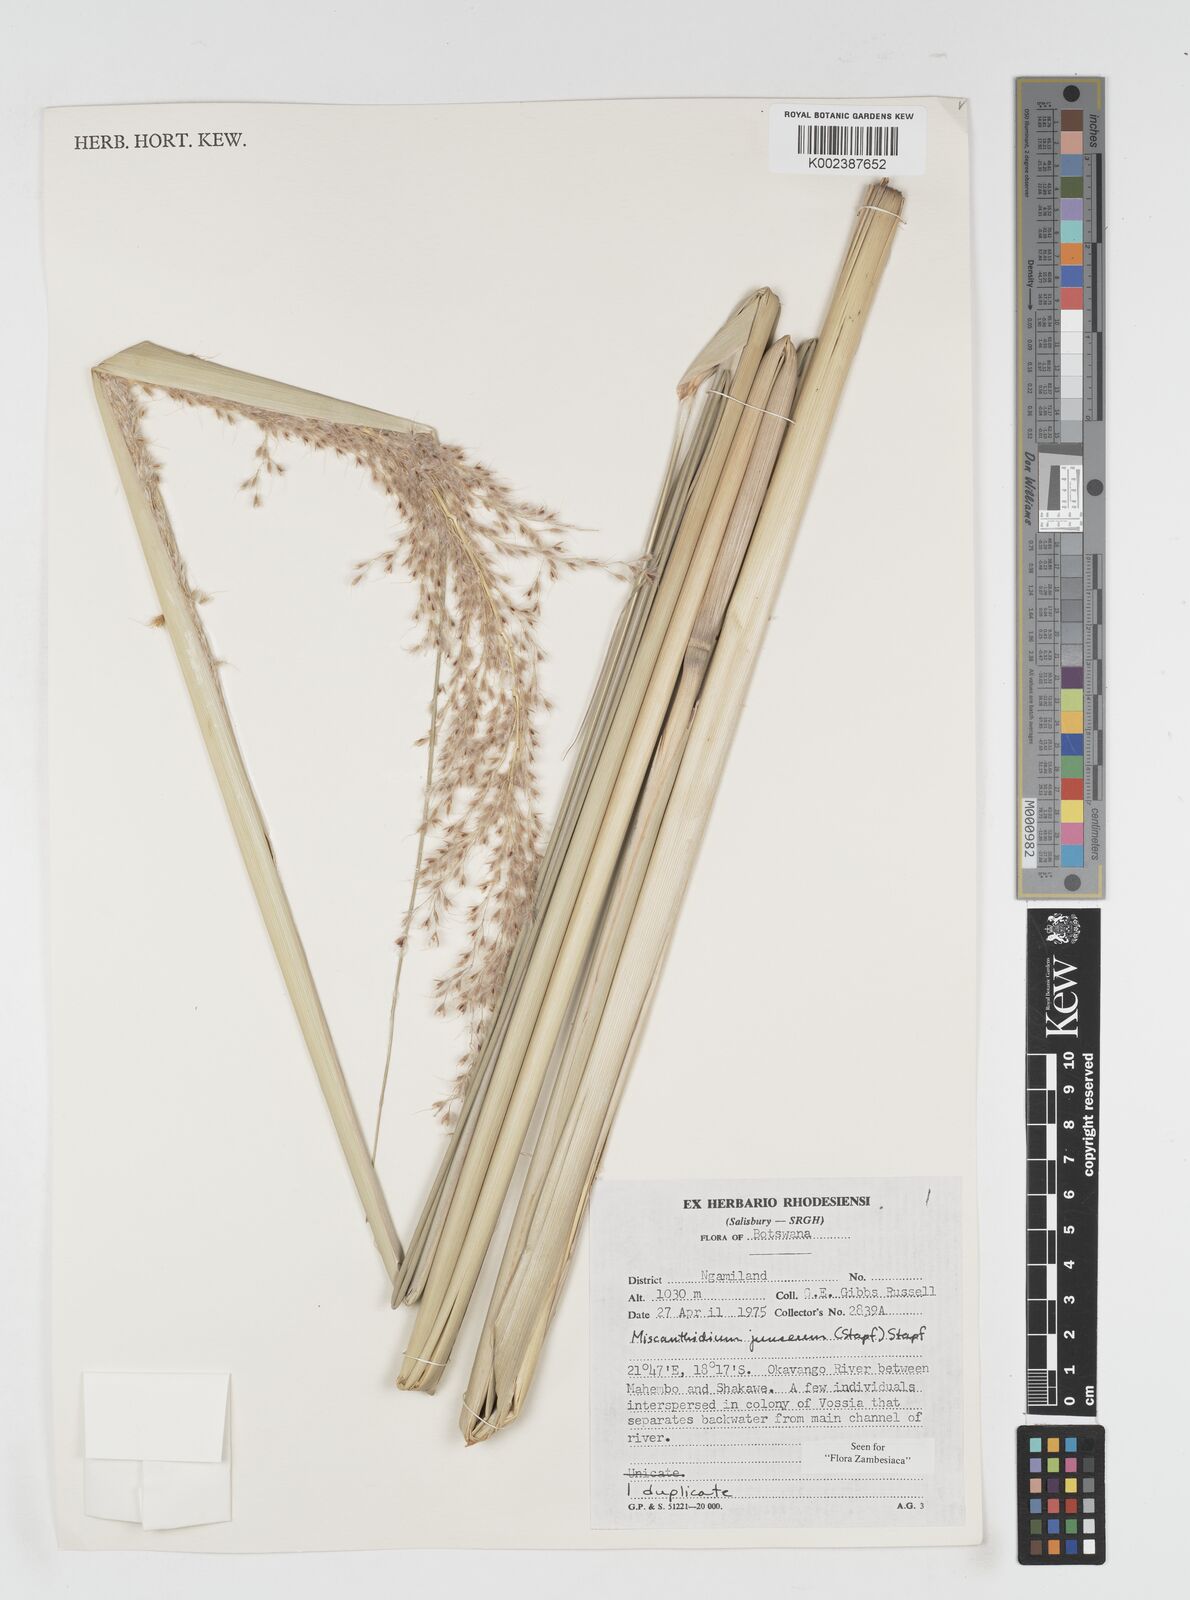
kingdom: Plantae
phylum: Tracheophyta
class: Liliopsida
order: Poales
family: Poaceae
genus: Miscanthidium
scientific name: Miscanthidium junceum
